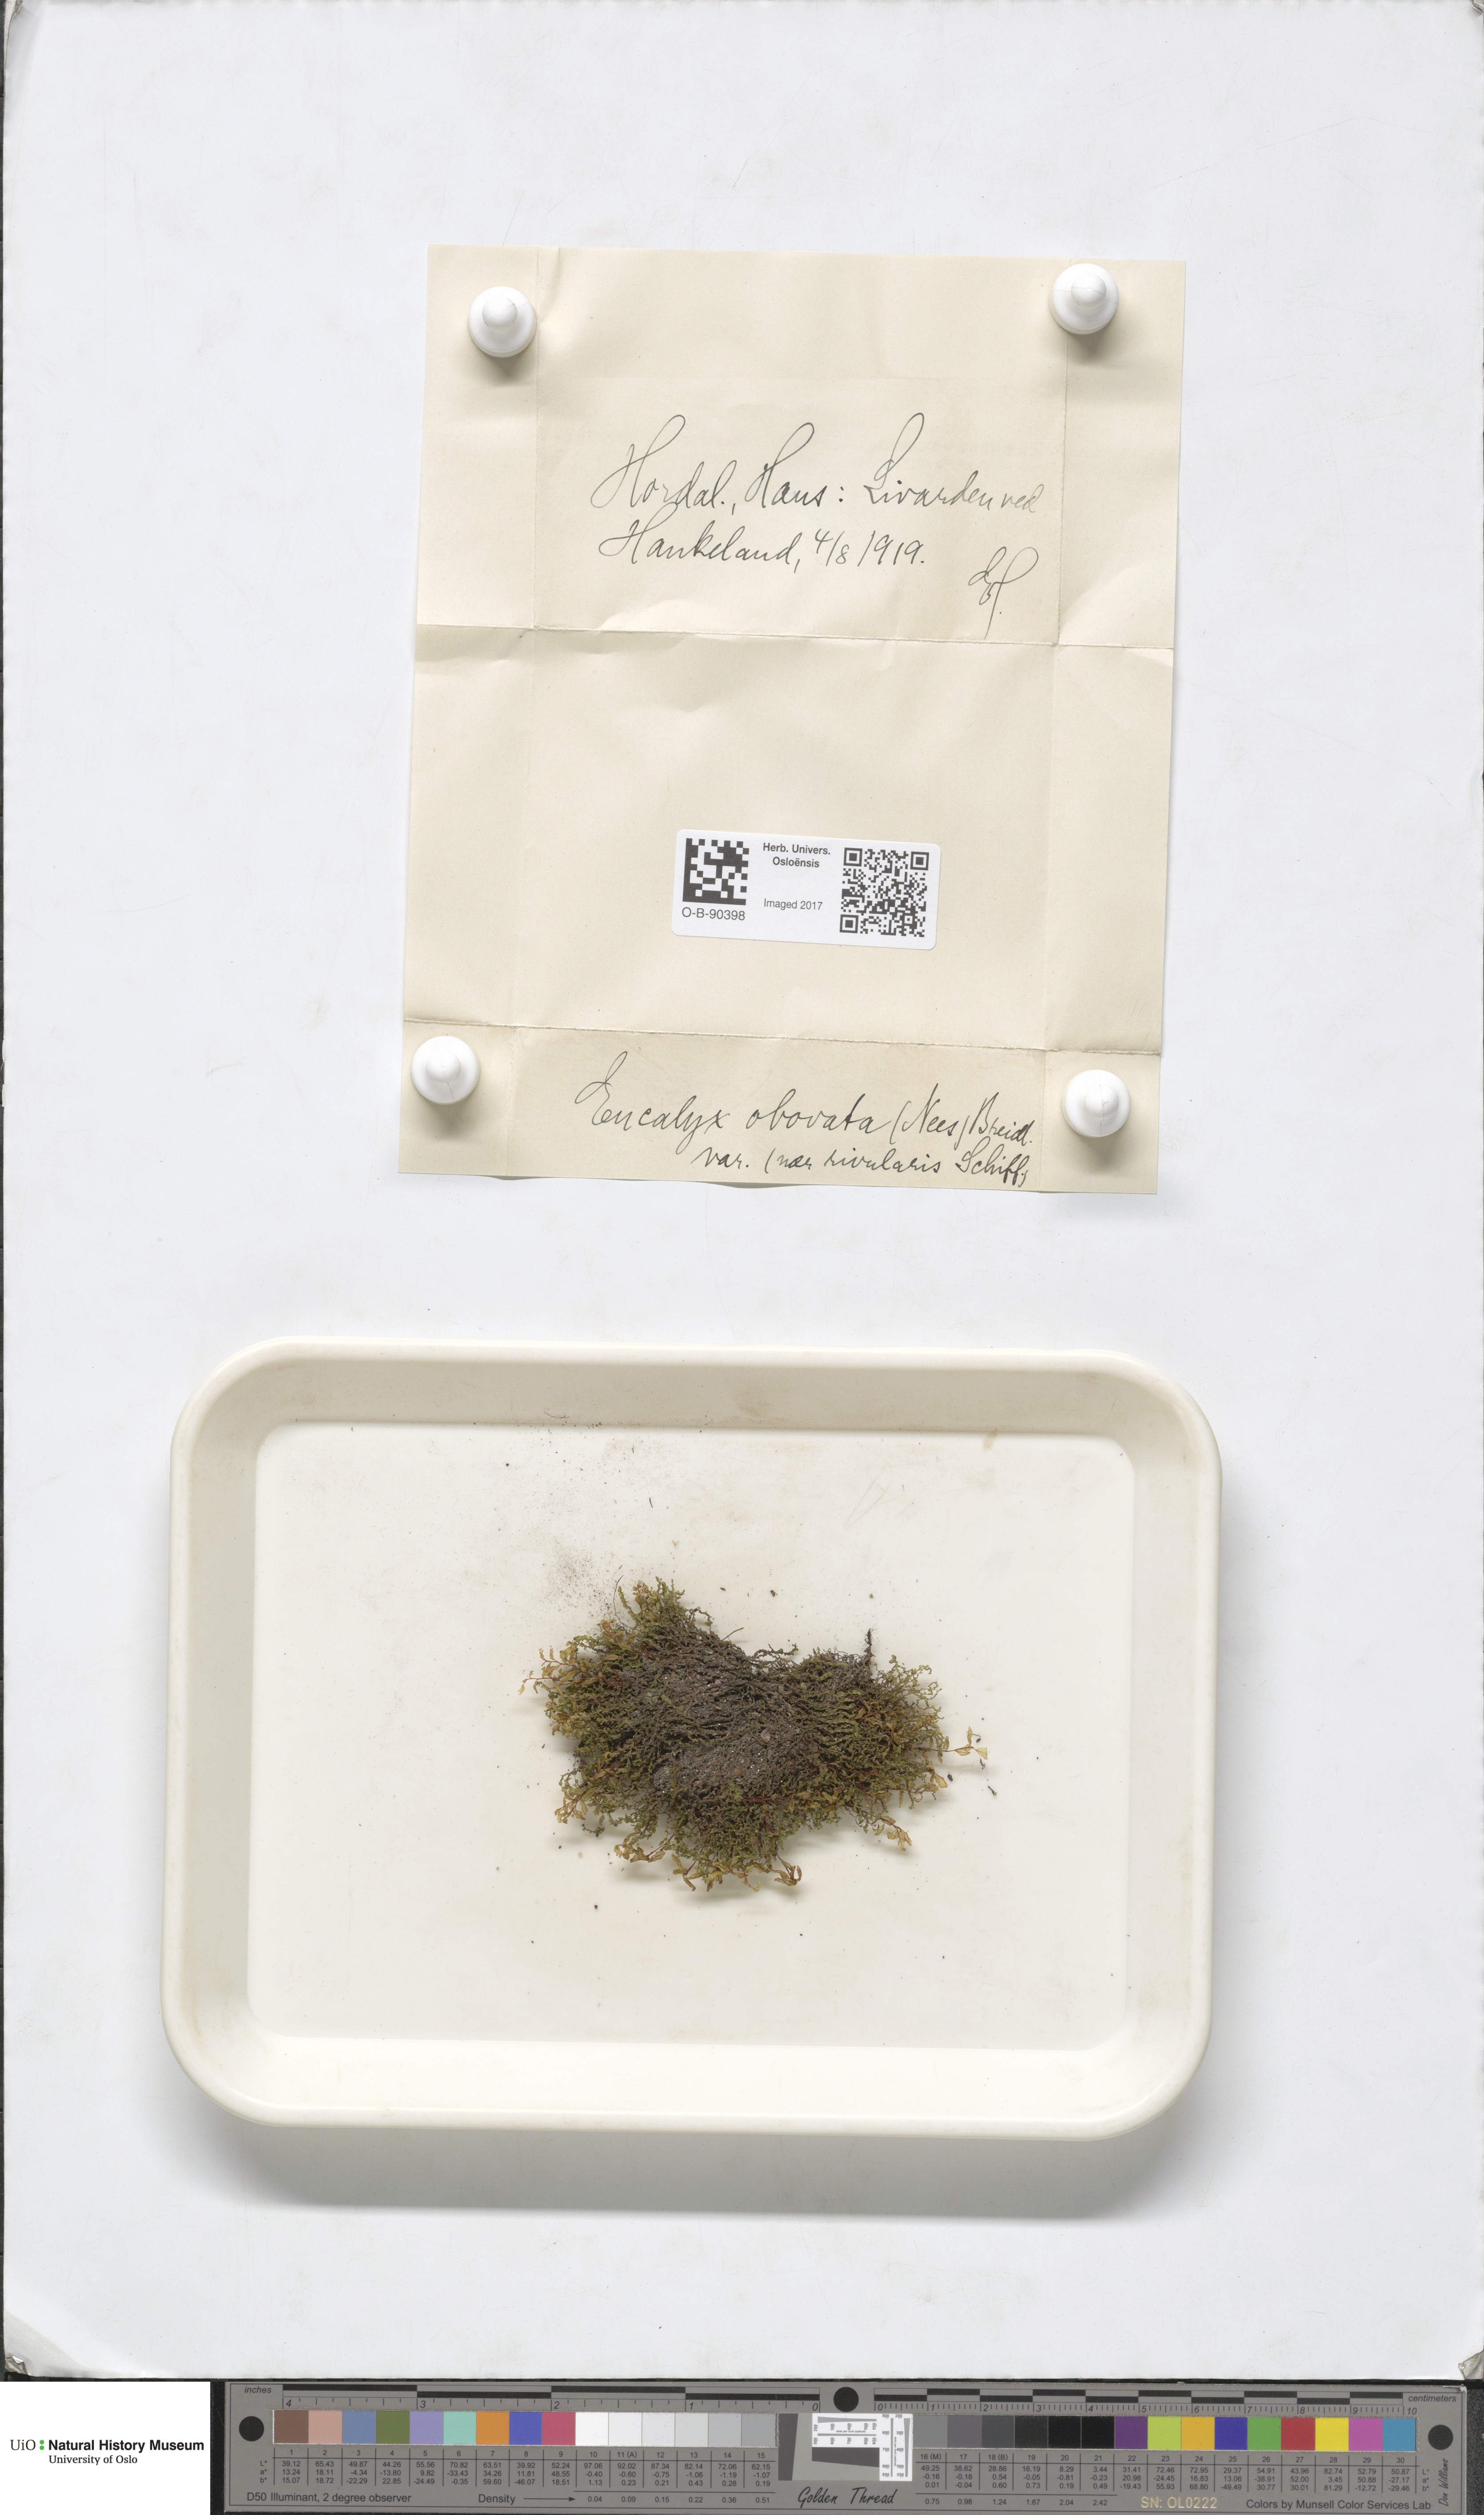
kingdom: Plantae
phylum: Marchantiophyta
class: Jungermanniopsida
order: Jungermanniales
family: Solenostomataceae
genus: Solenostoma
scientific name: Solenostoma obovatum
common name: Egg flapwort
